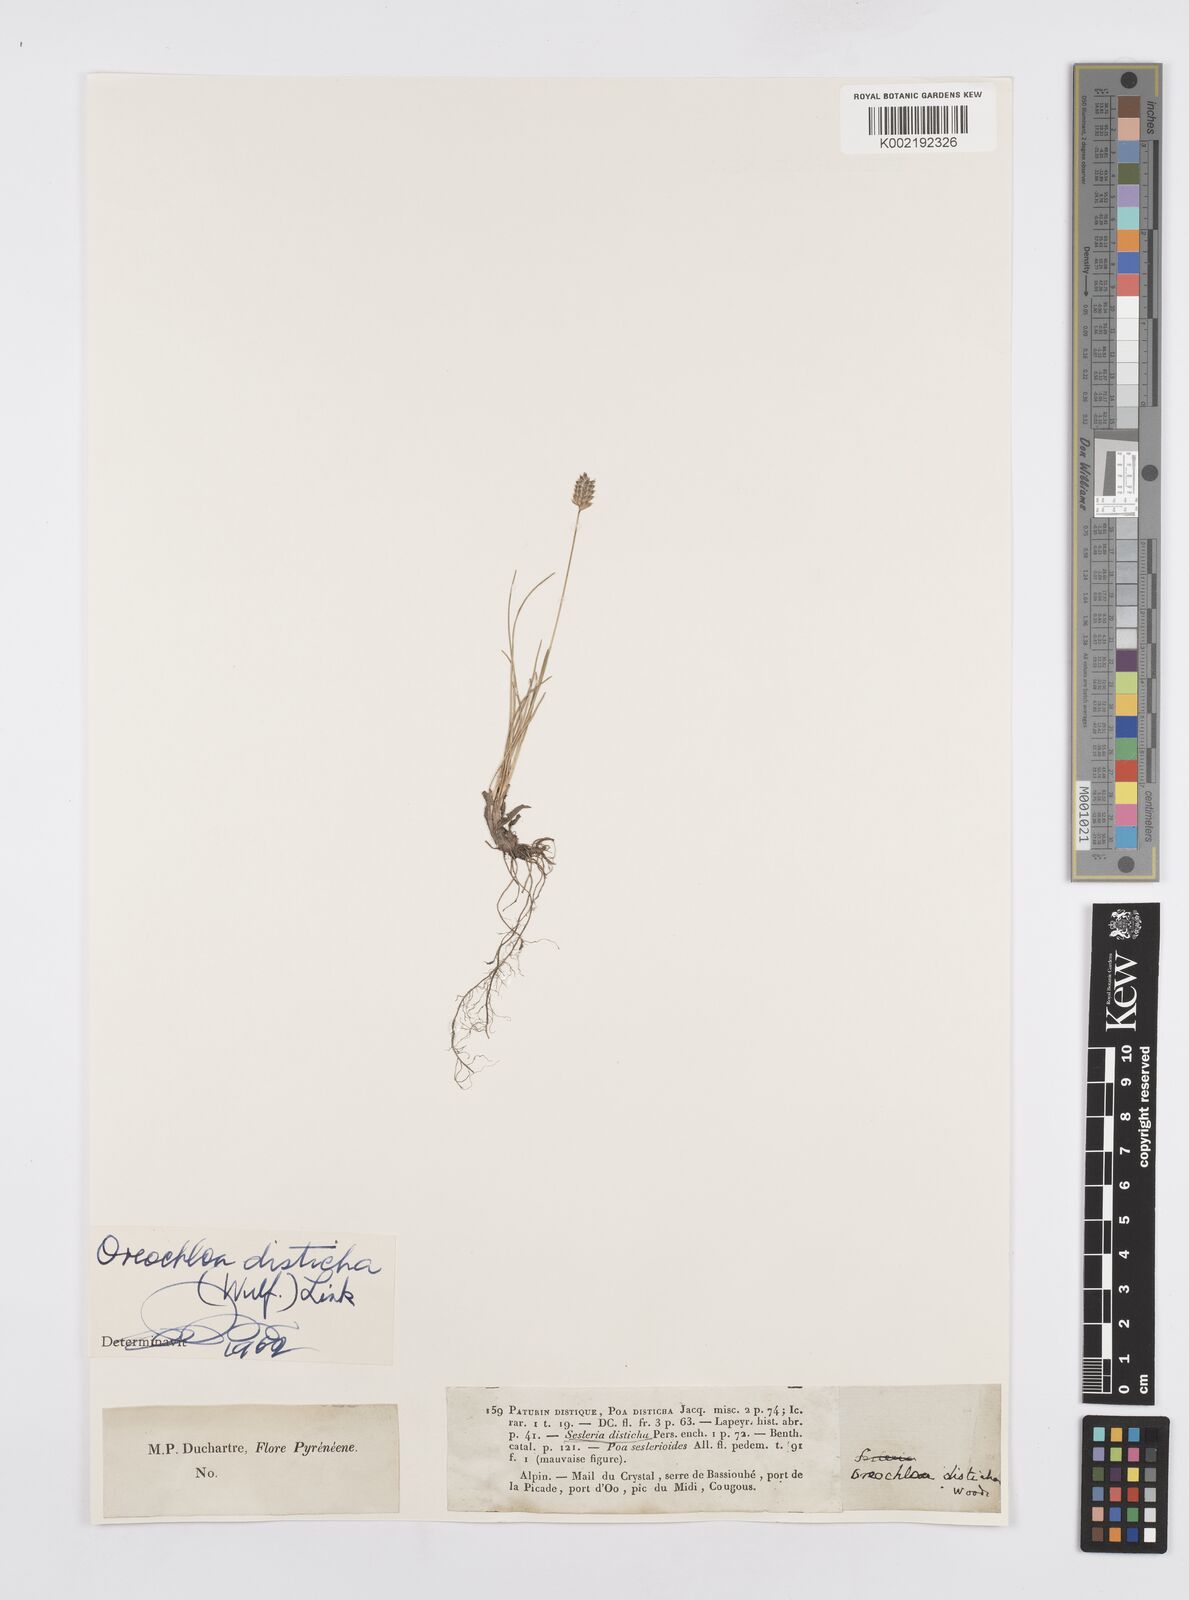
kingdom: Plantae
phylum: Tracheophyta
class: Liliopsida
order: Poales
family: Poaceae
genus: Oreochloa
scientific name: Oreochloa disticha
